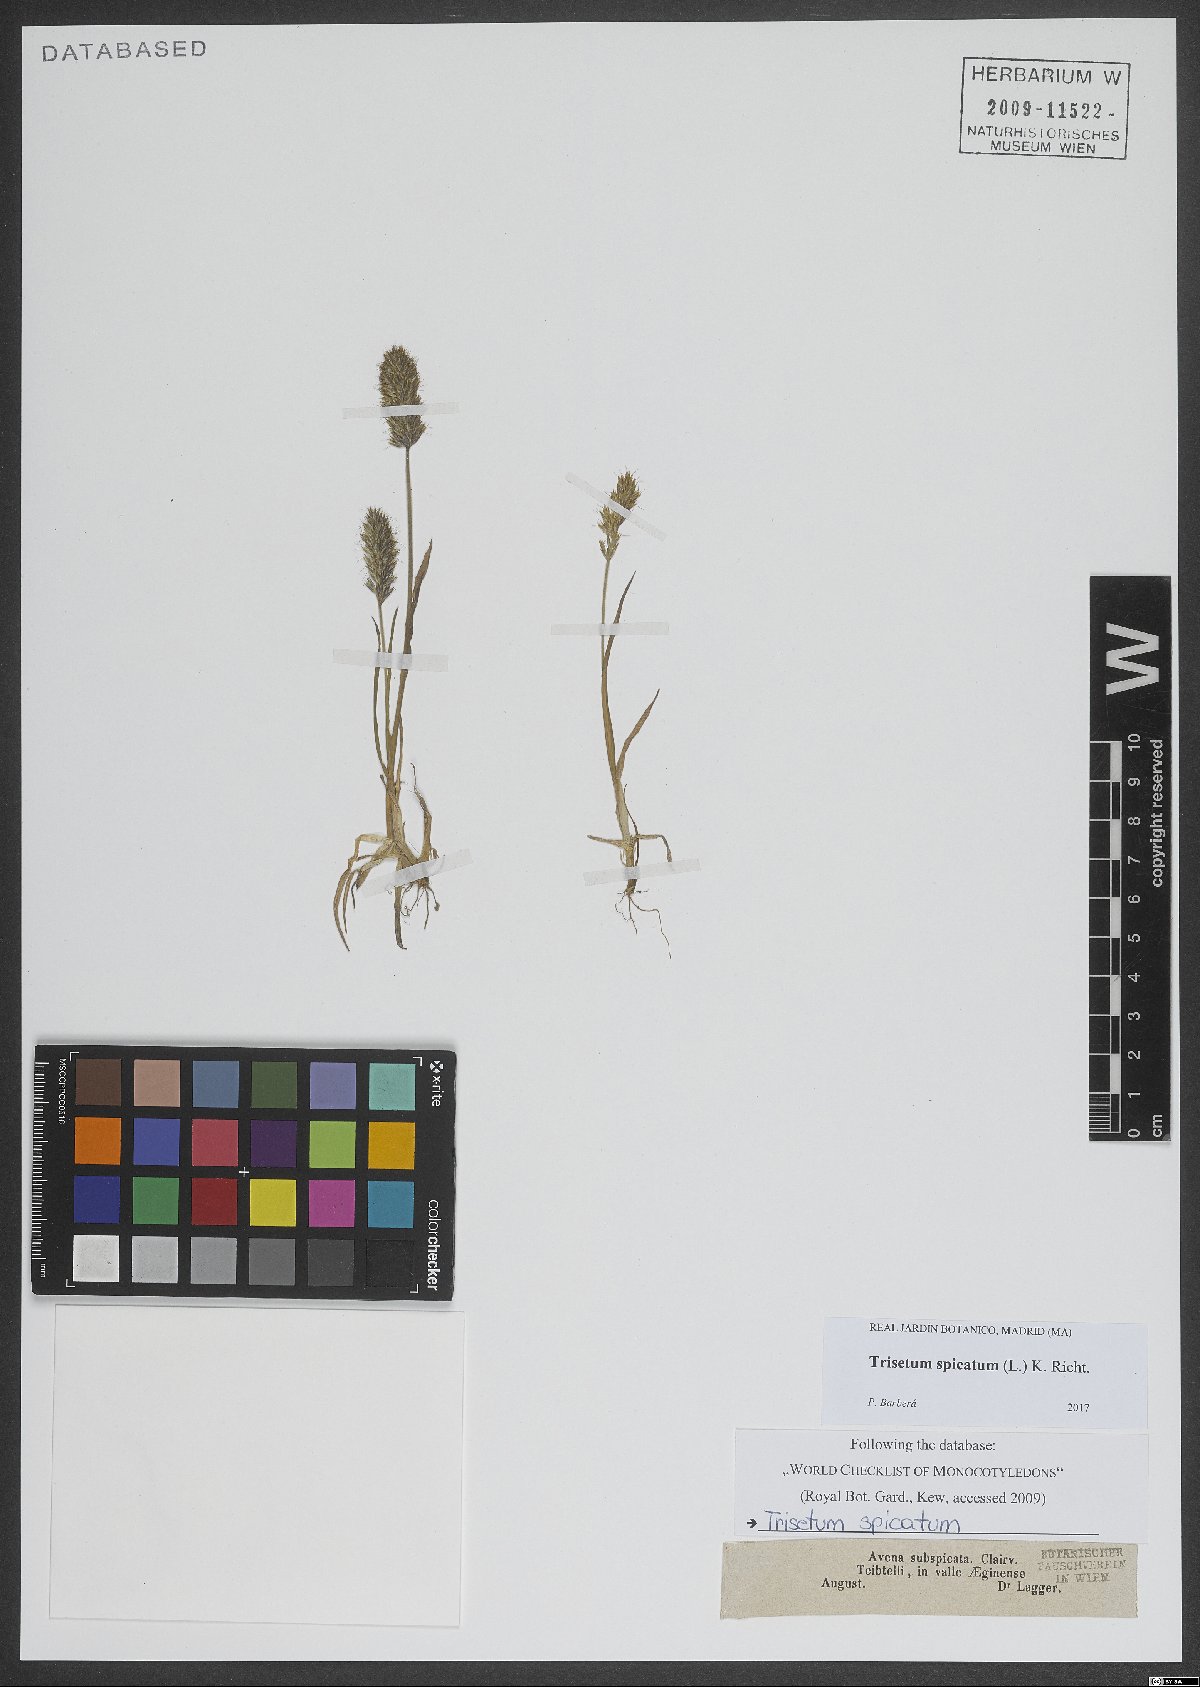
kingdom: Plantae
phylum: Tracheophyta
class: Liliopsida
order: Poales
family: Poaceae
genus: Koeleria
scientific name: Koeleria spicata
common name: Mountain trisetum
